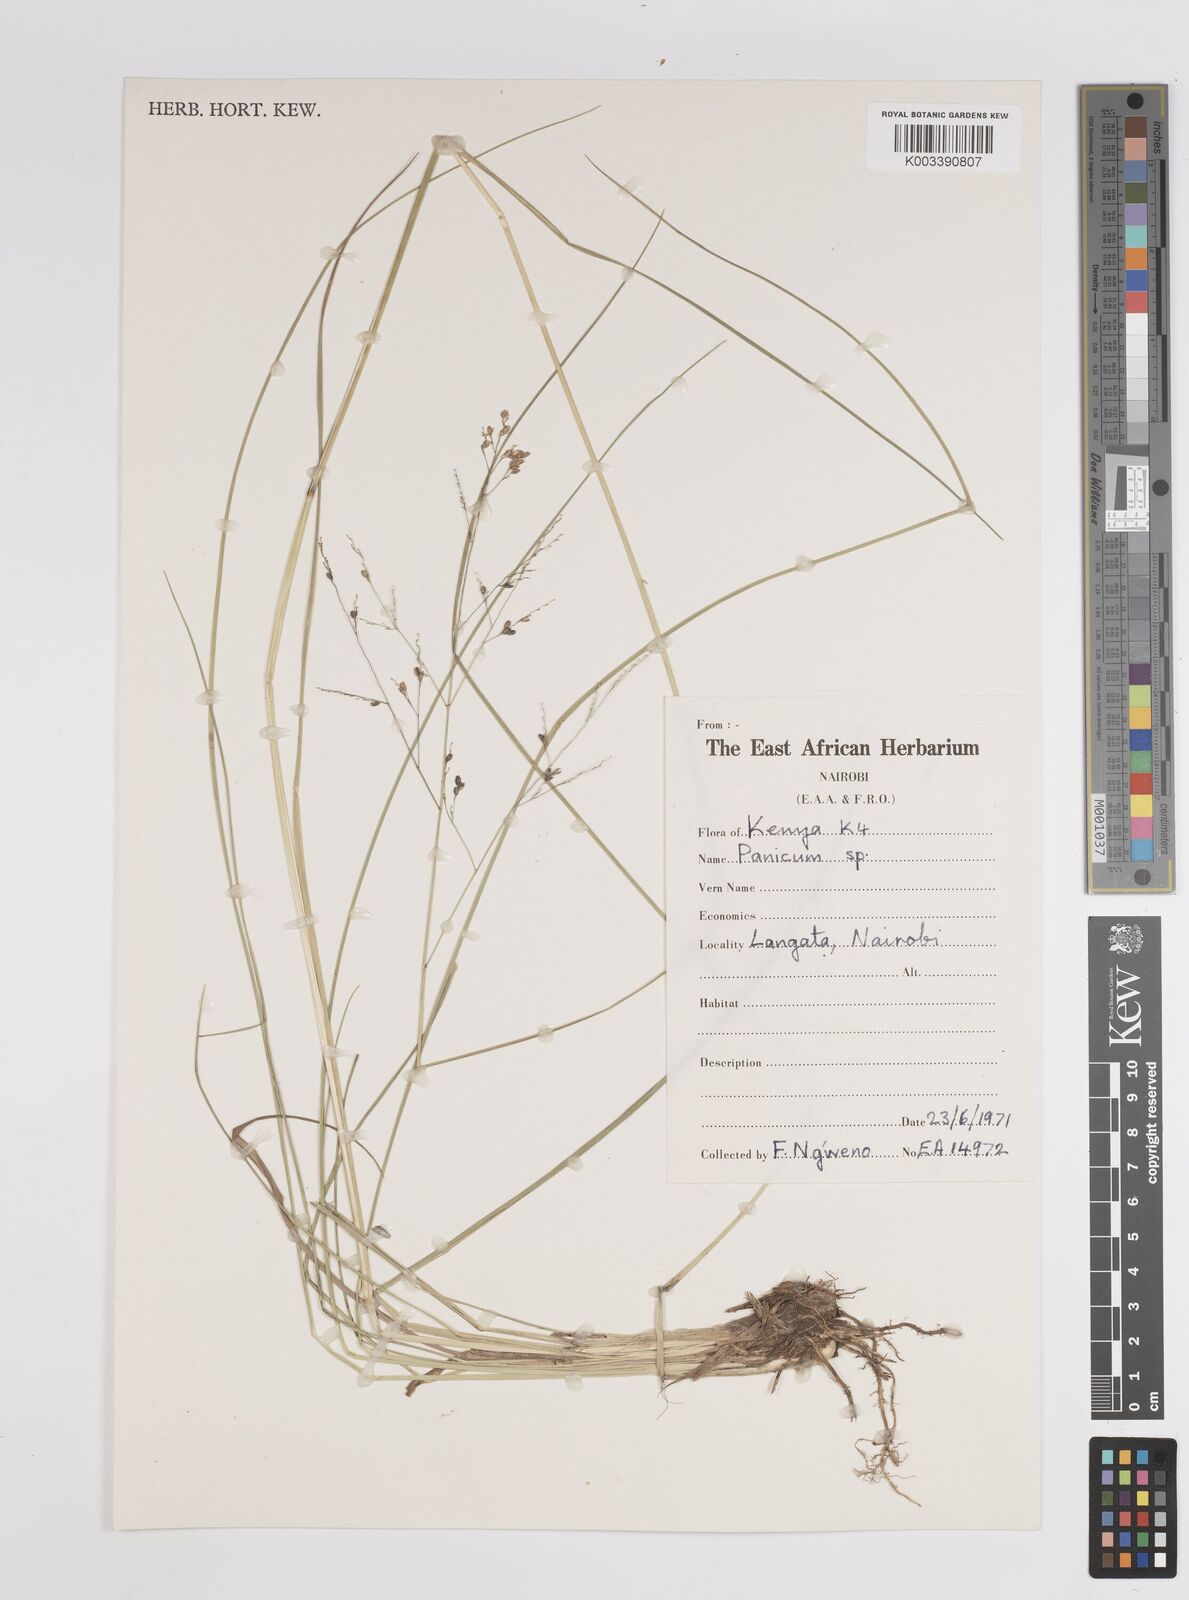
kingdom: Plantae
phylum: Tracheophyta
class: Liliopsida
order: Poales
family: Poaceae
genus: Panicum
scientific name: Panicum coloratum
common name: Kleingrass
